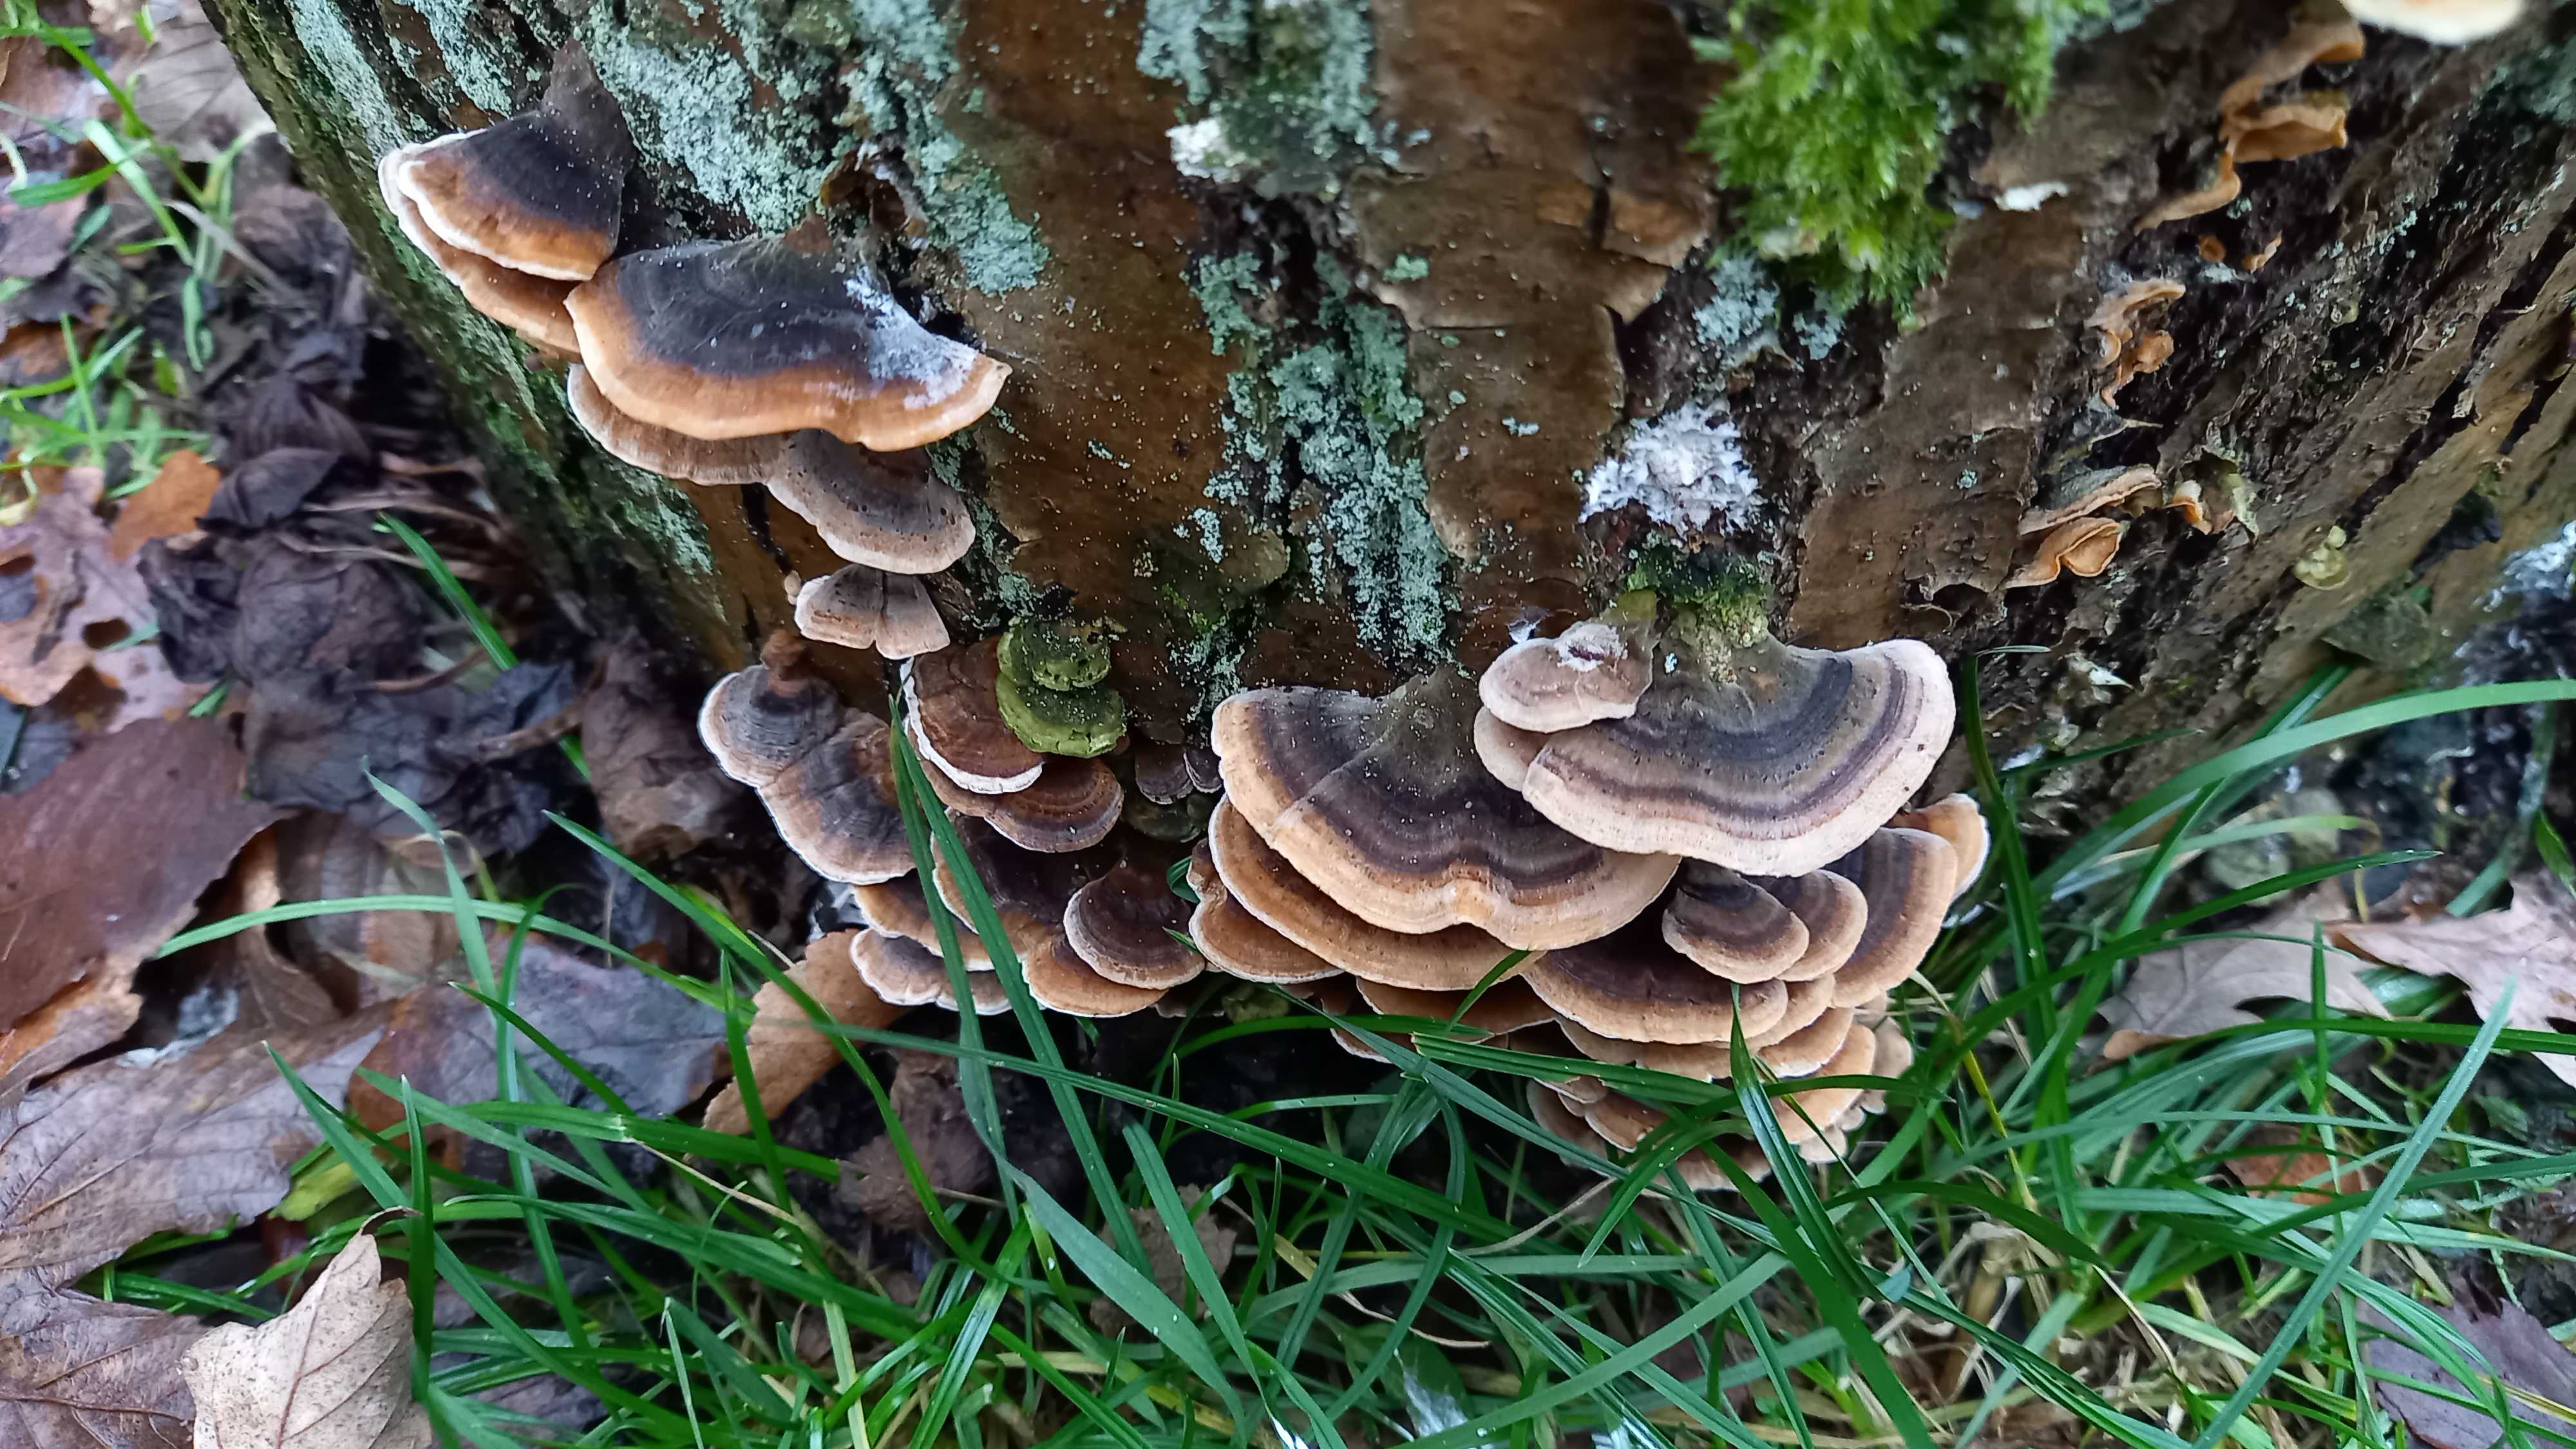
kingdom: Fungi
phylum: Basidiomycota
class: Agaricomycetes
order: Polyporales
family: Polyporaceae
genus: Trametes
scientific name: Trametes versicolor
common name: broget læderporesvamp
